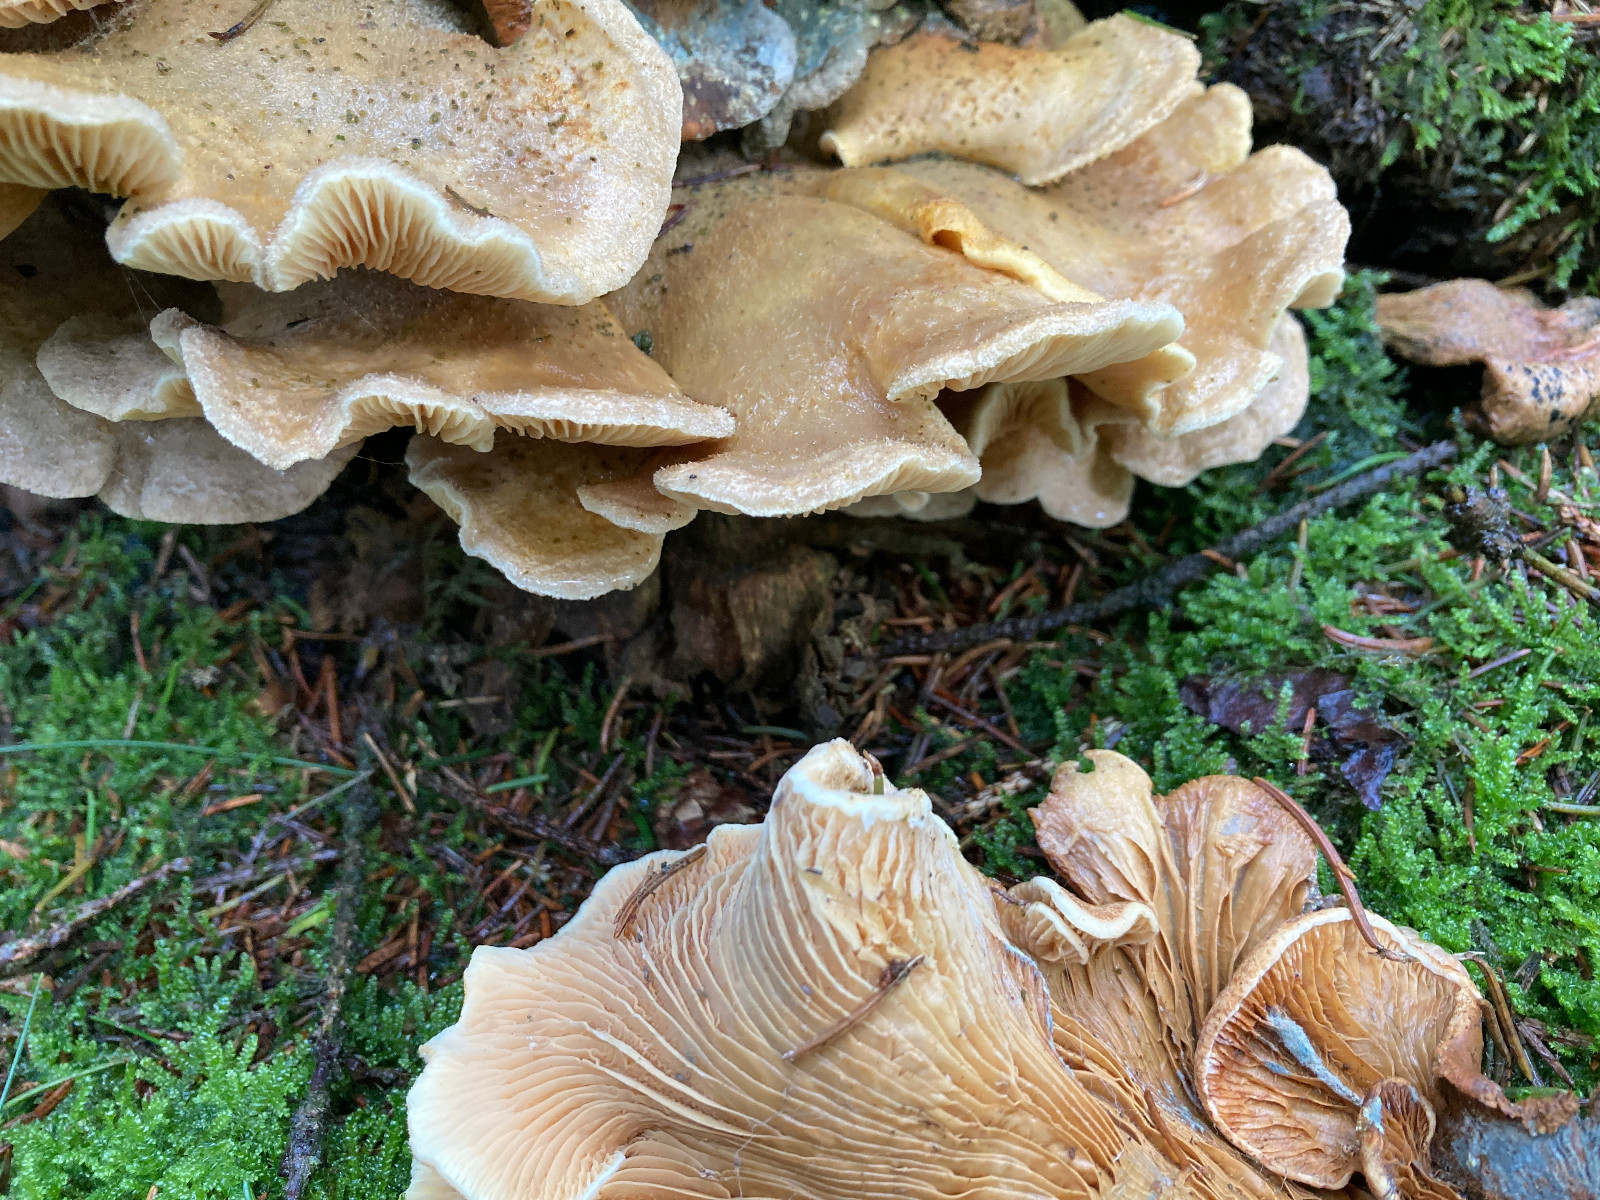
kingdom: Fungi
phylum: Basidiomycota
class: Agaricomycetes
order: Boletales
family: Tapinellaceae
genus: Tapinella
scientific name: Tapinella panuoides
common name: tømmer-viftesvamp
